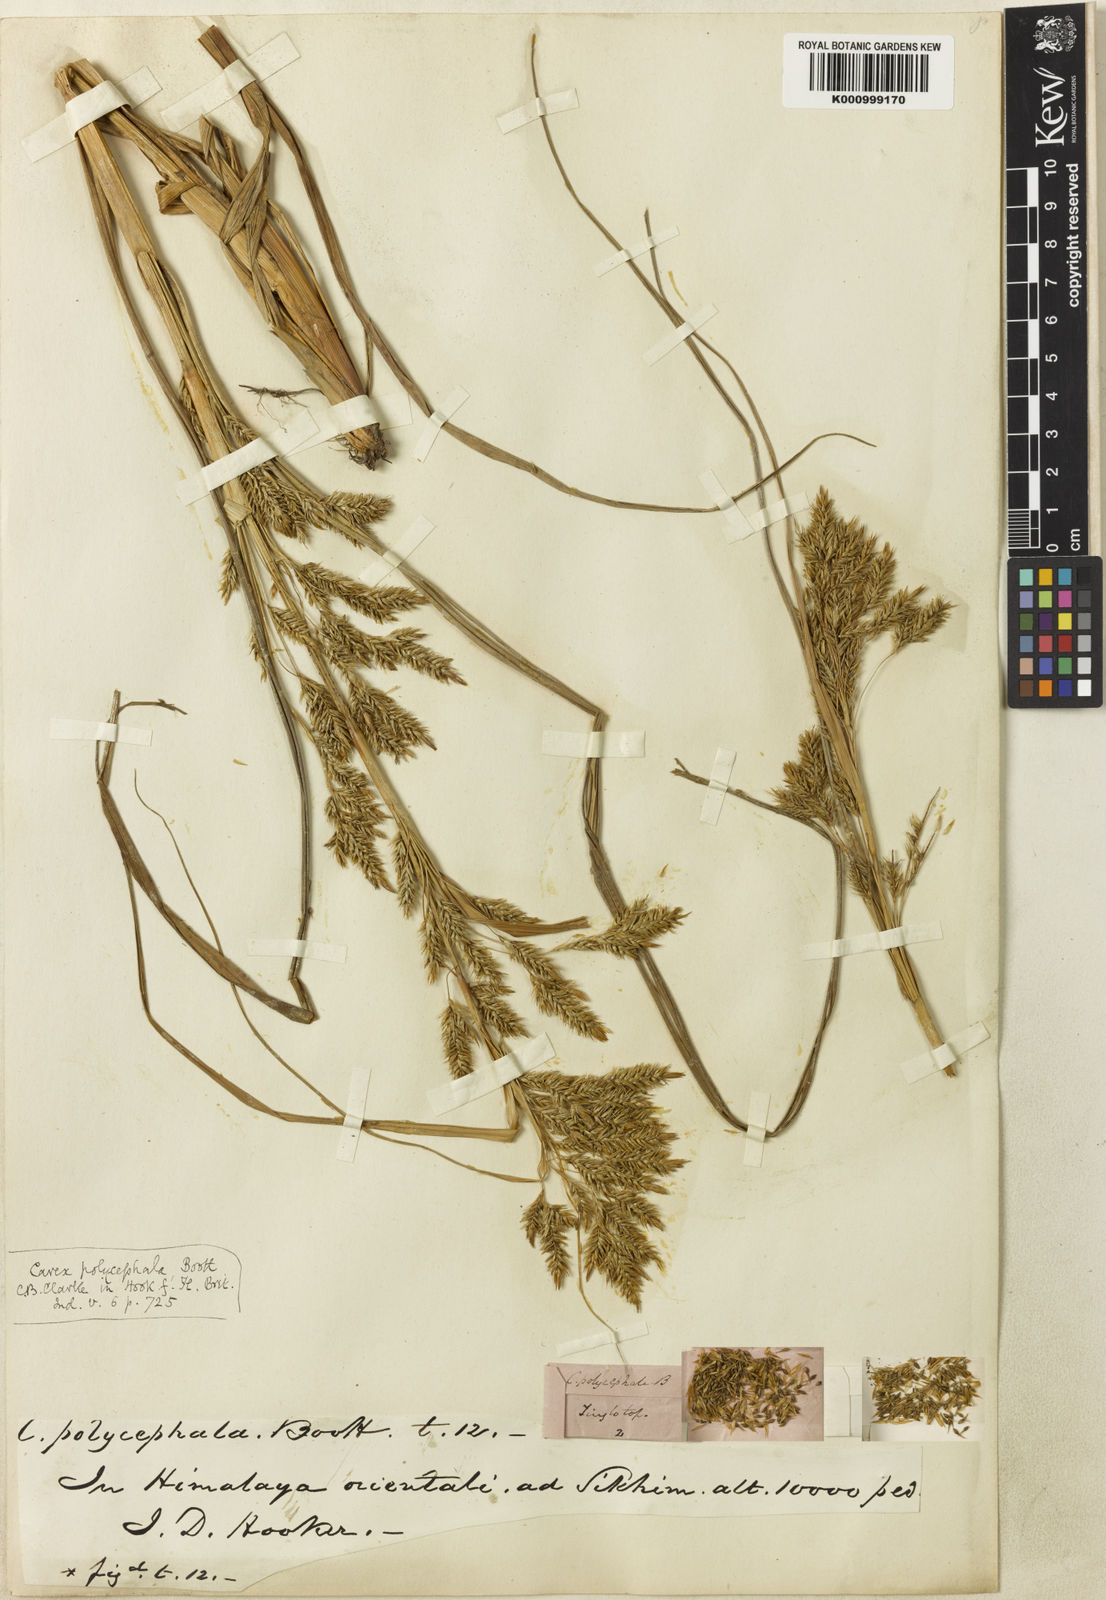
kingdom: Plantae
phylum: Tracheophyta
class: Liliopsida
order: Poales
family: Cyperaceae
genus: Carex
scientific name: Carex polycephala
